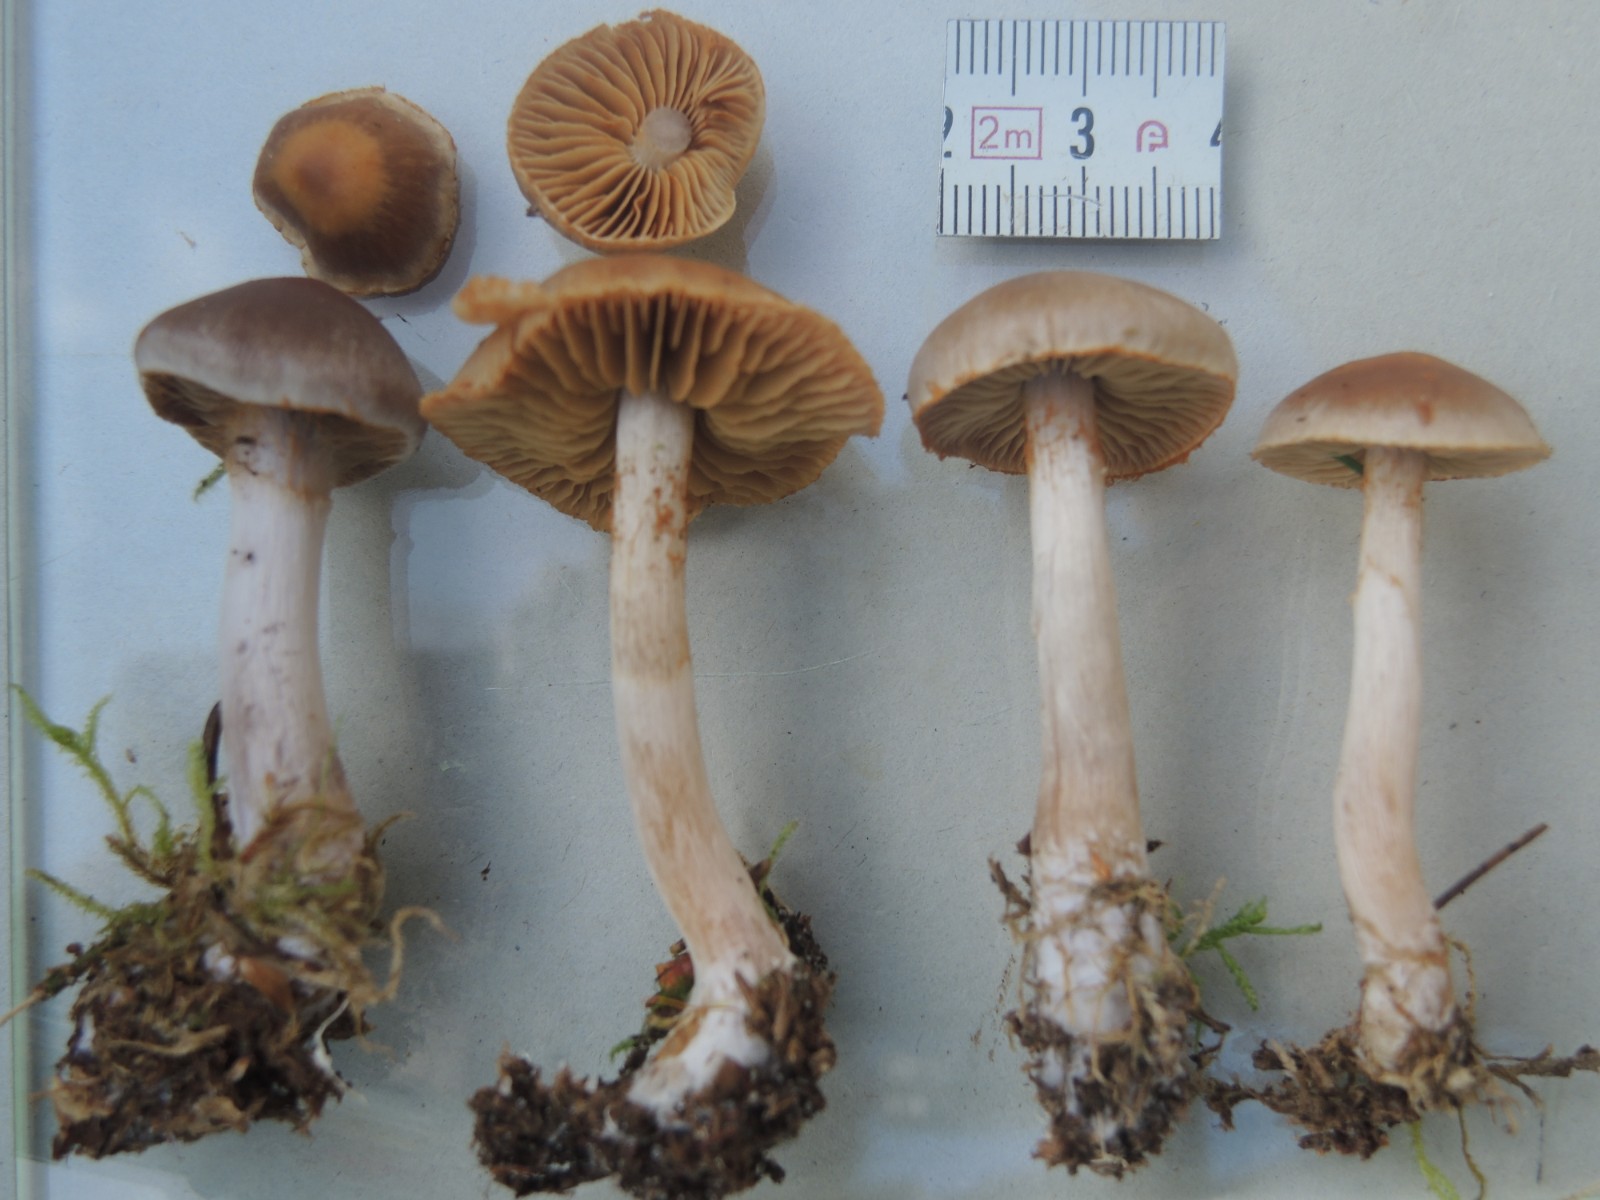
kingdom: Fungi
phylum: Basidiomycota
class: Agaricomycetes
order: Agaricales
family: Cortinariaceae
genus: Cortinarius
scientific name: Cortinarius kauffmanianus
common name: plantage-slørhat
